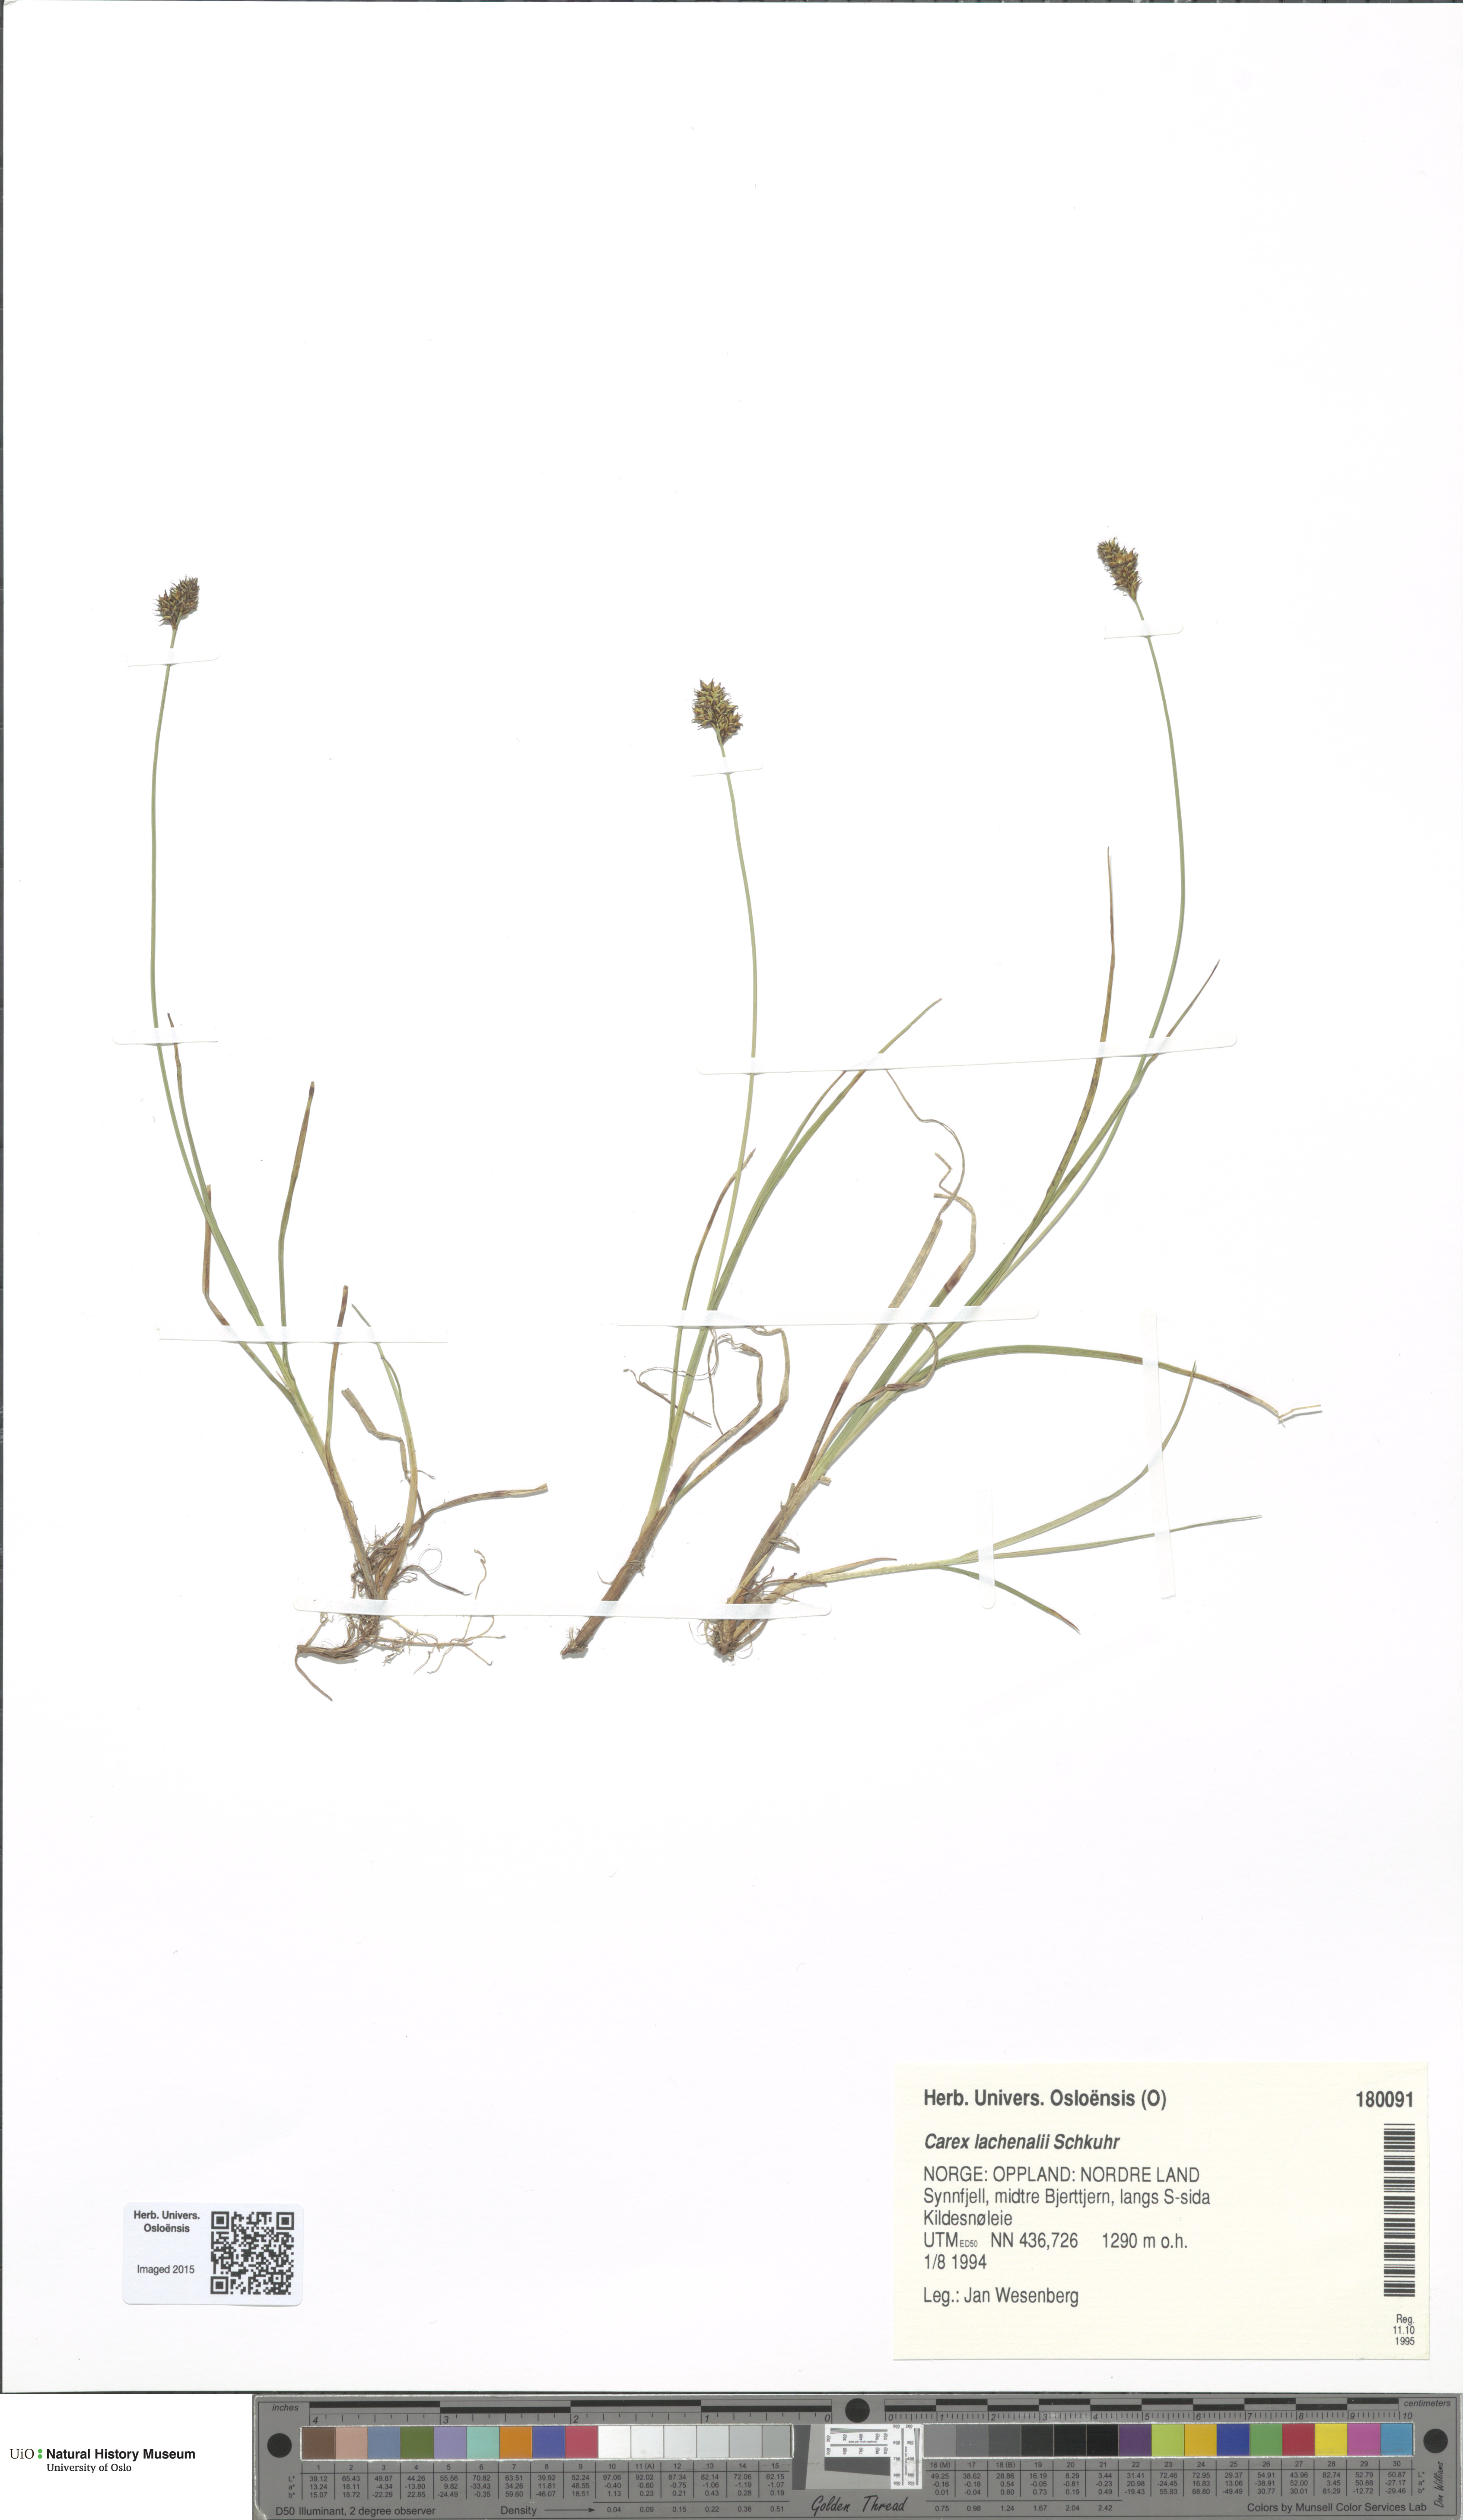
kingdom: Plantae
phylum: Tracheophyta
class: Liliopsida
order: Poales
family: Cyperaceae
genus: Carex
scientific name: Carex lachenalii
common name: Hare's-foot sedge
